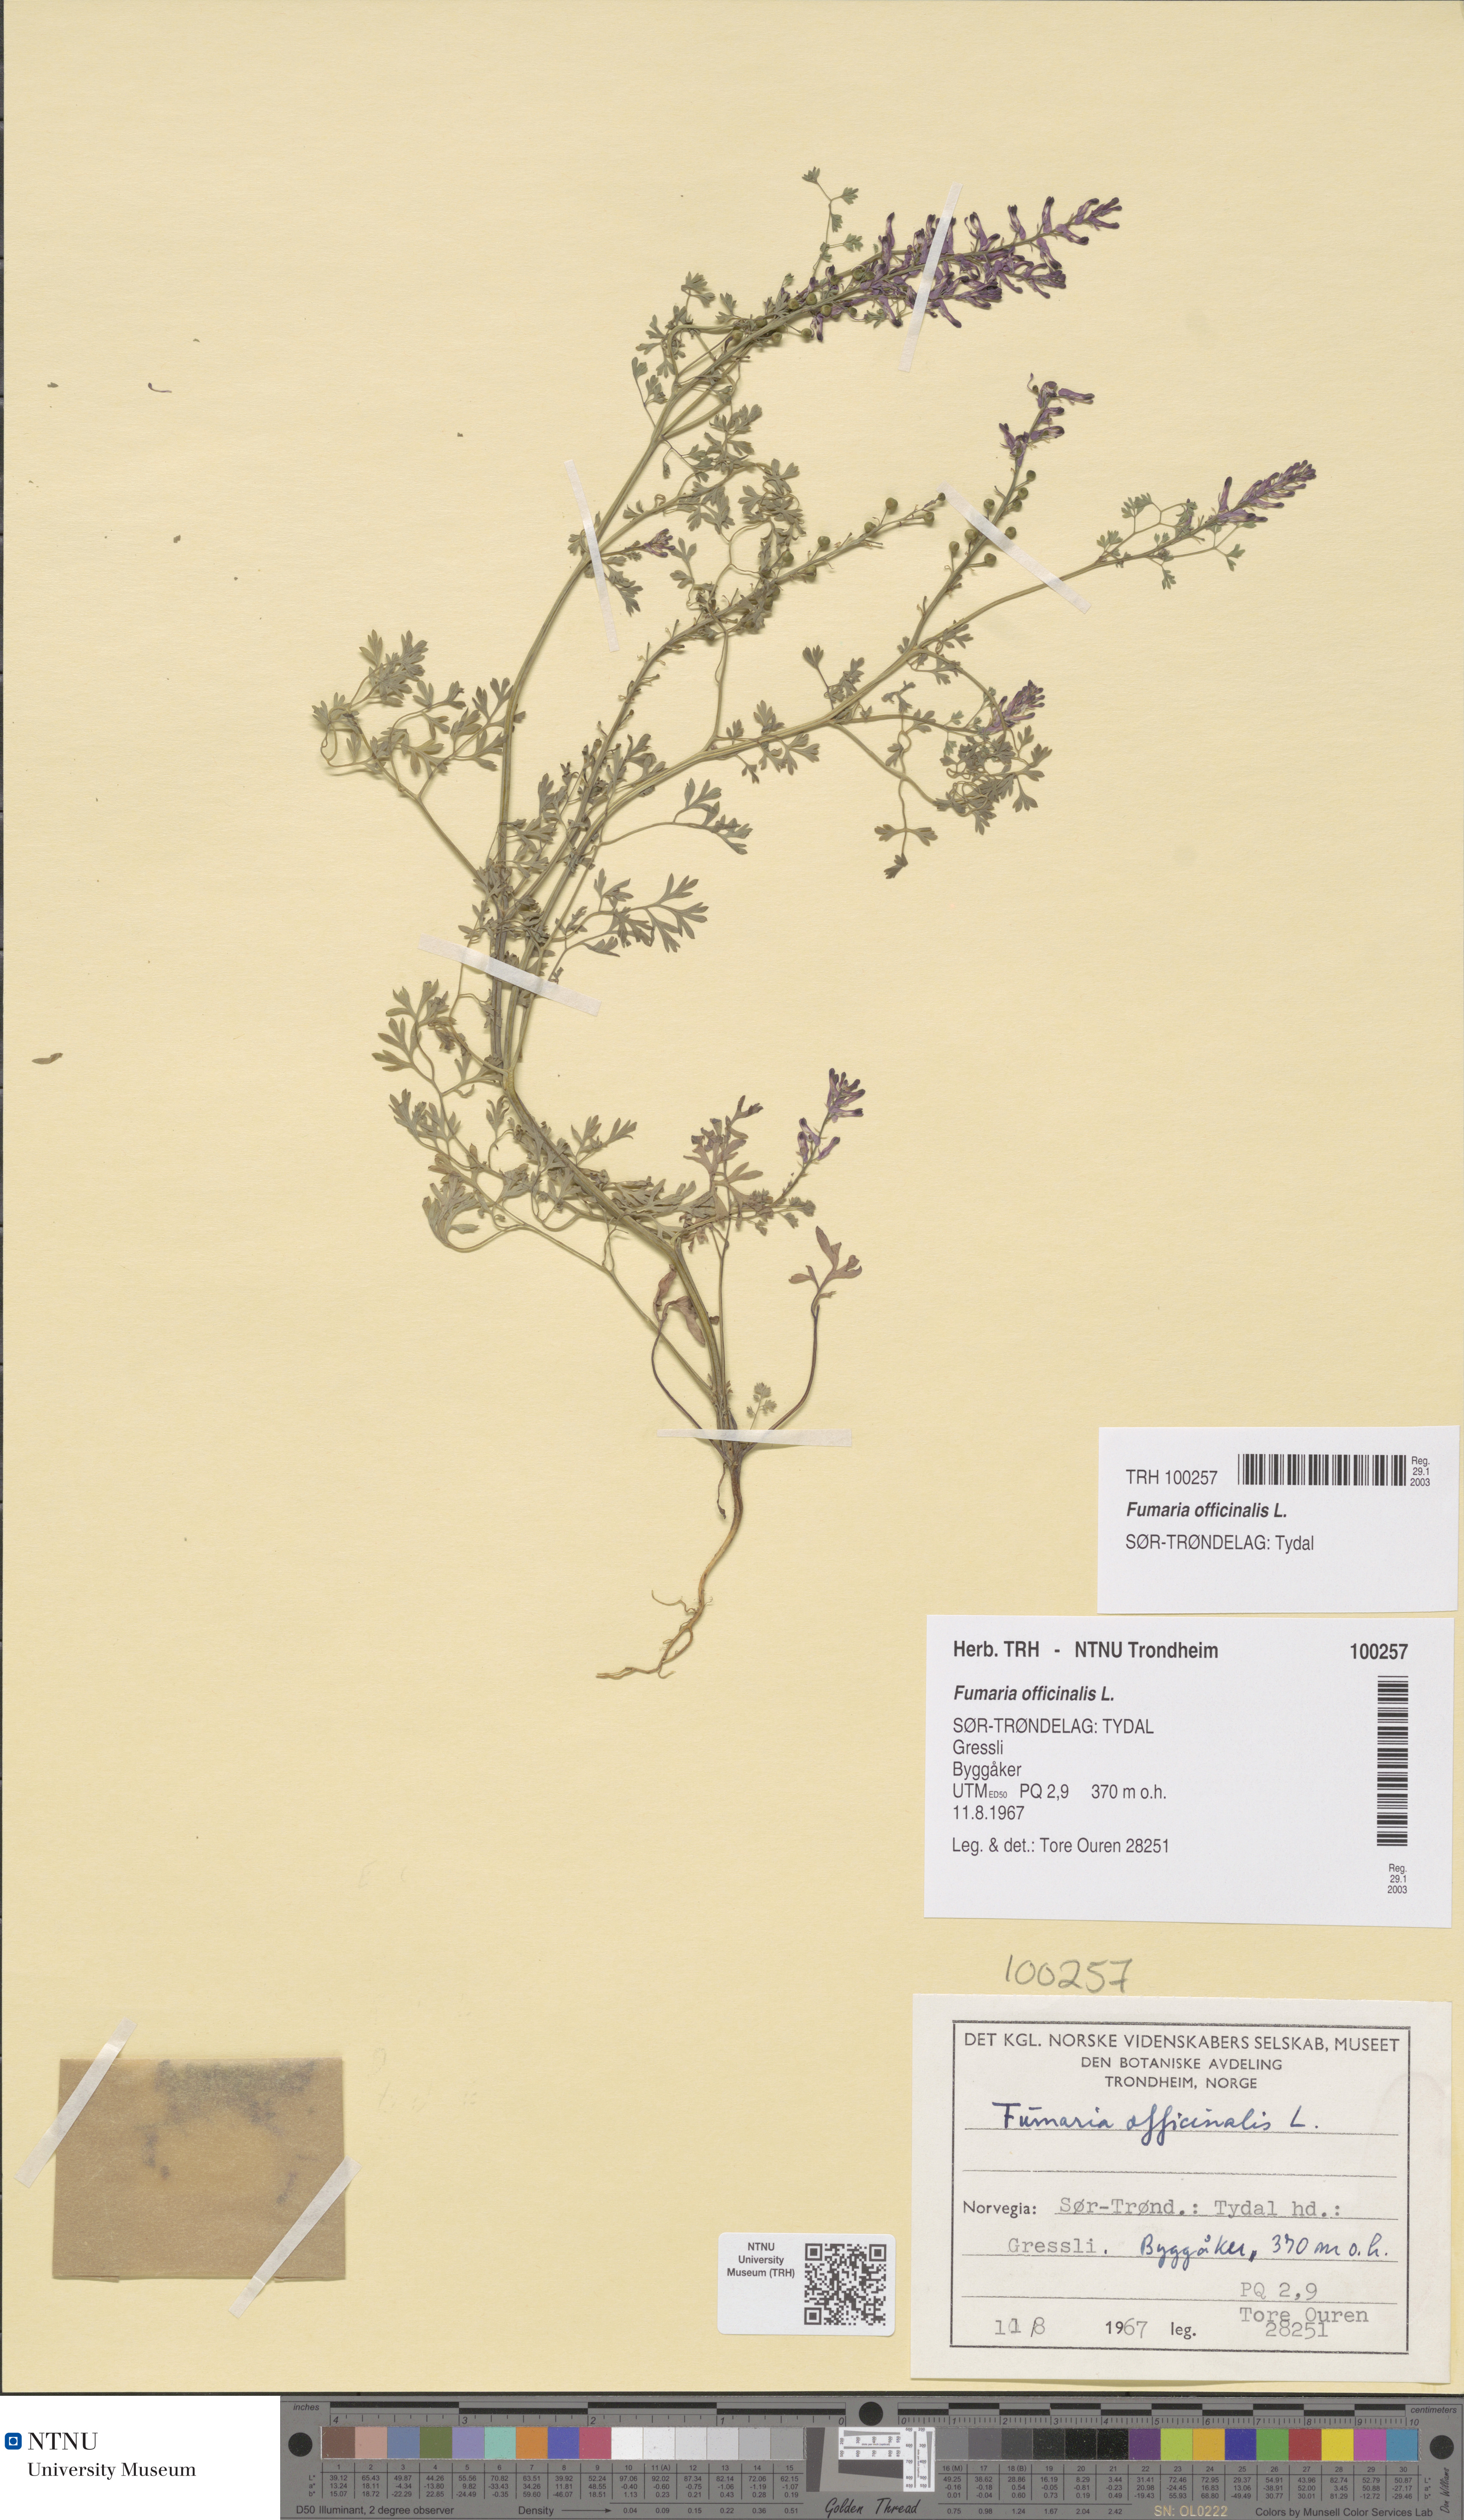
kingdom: Plantae
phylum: Tracheophyta
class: Magnoliopsida
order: Ranunculales
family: Papaveraceae
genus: Fumaria
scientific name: Fumaria officinalis
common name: Common fumitory
